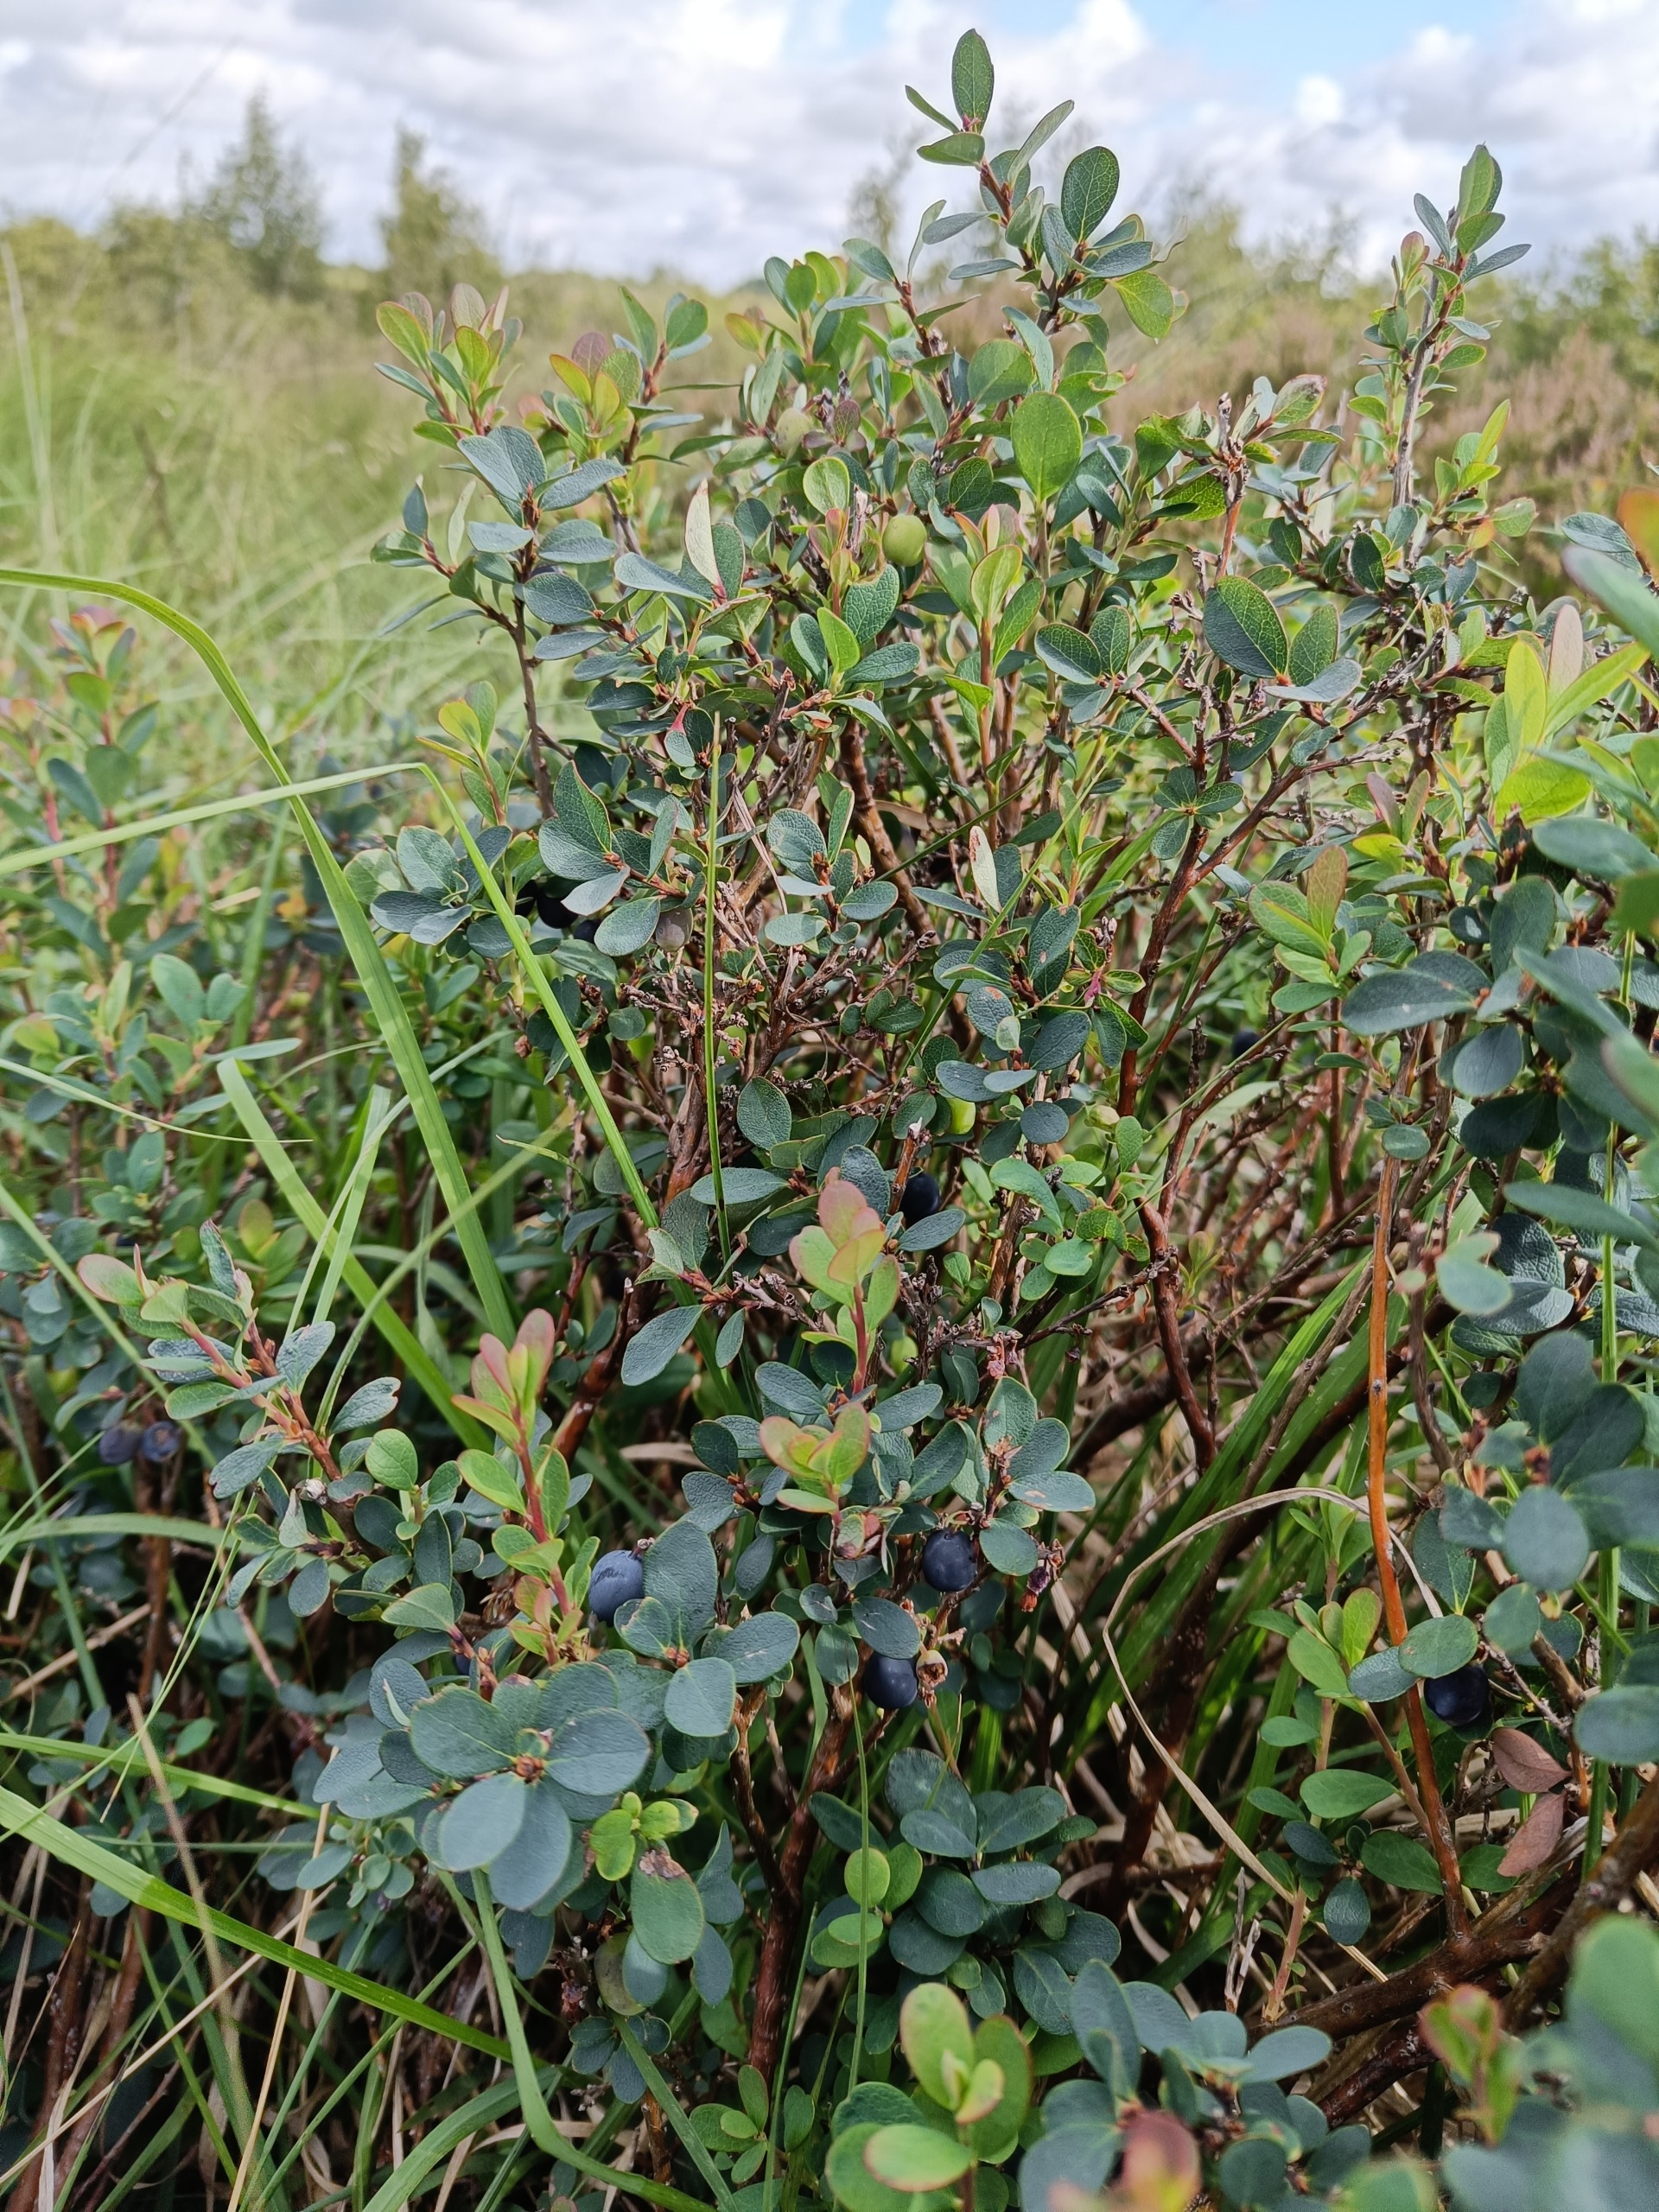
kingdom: Plantae
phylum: Tracheophyta
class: Magnoliopsida
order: Ericales
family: Ericaceae
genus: Vaccinium
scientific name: Vaccinium uliginosum
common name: Mose-bølle
